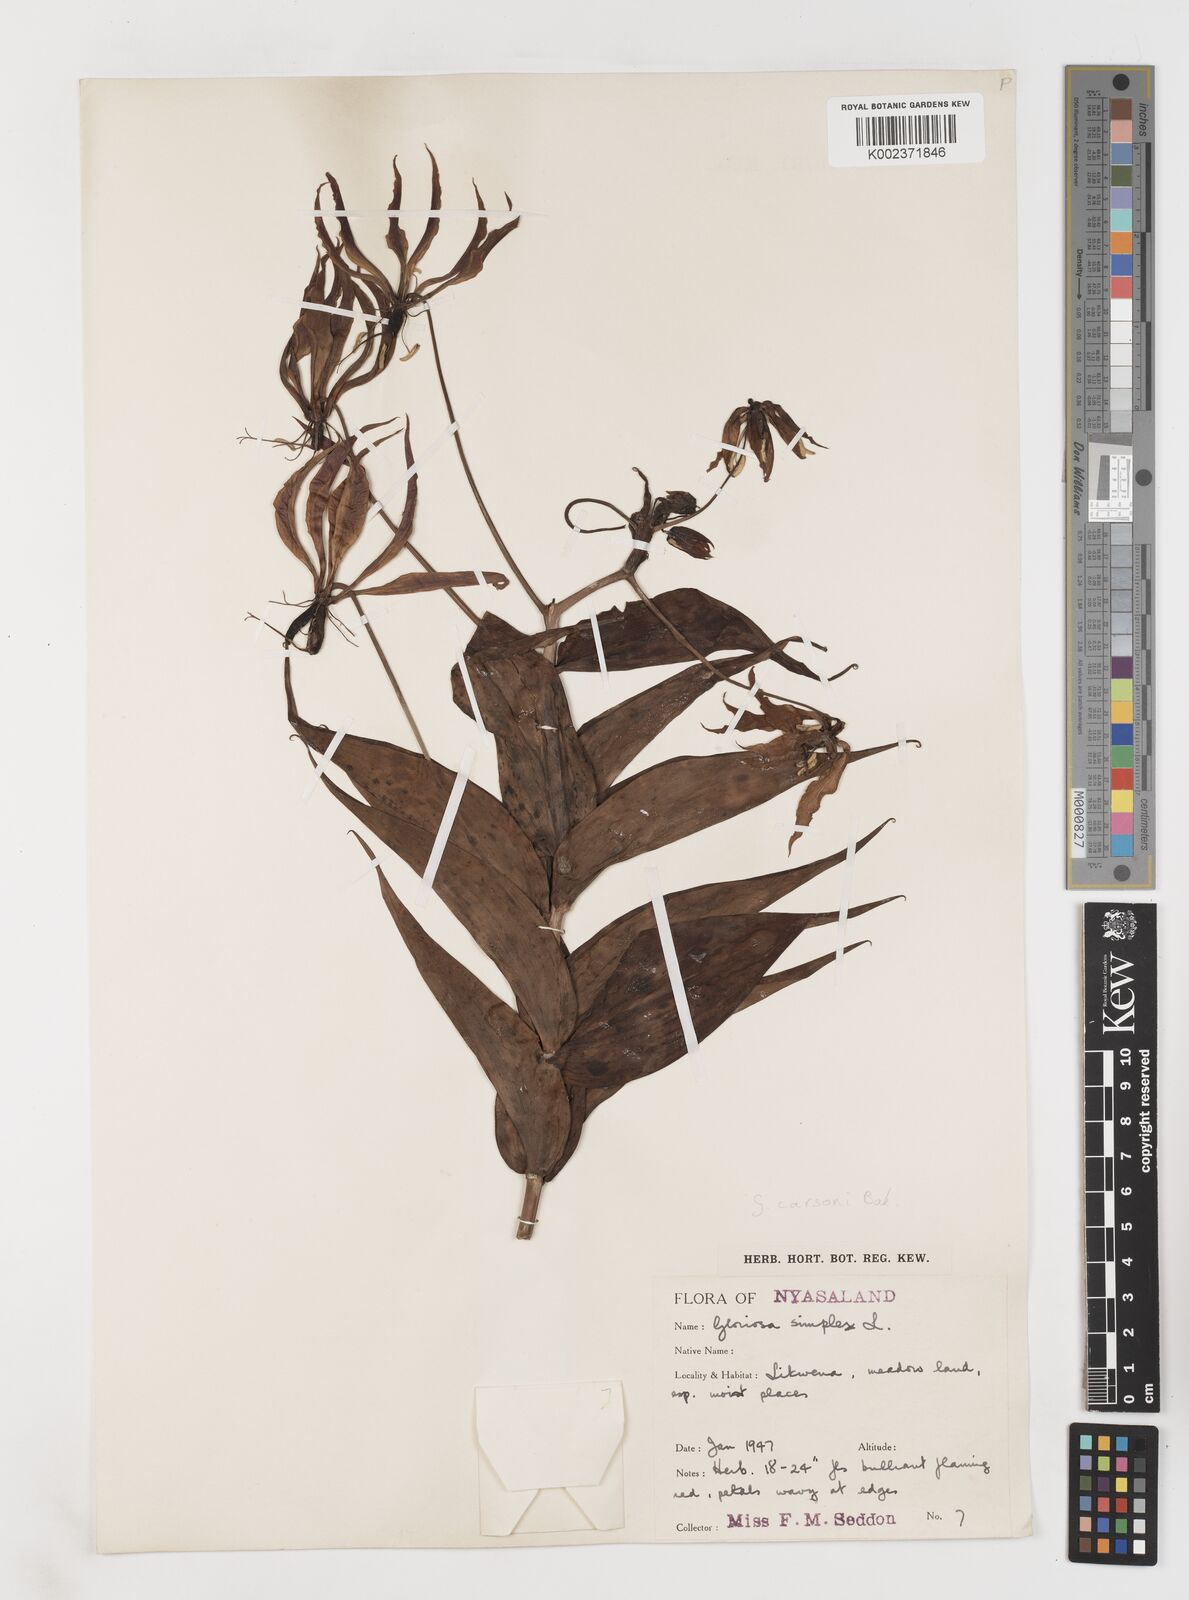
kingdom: Plantae
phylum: Tracheophyta
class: Liliopsida
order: Liliales
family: Colchicaceae
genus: Gloriosa
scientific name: Gloriosa simplex
